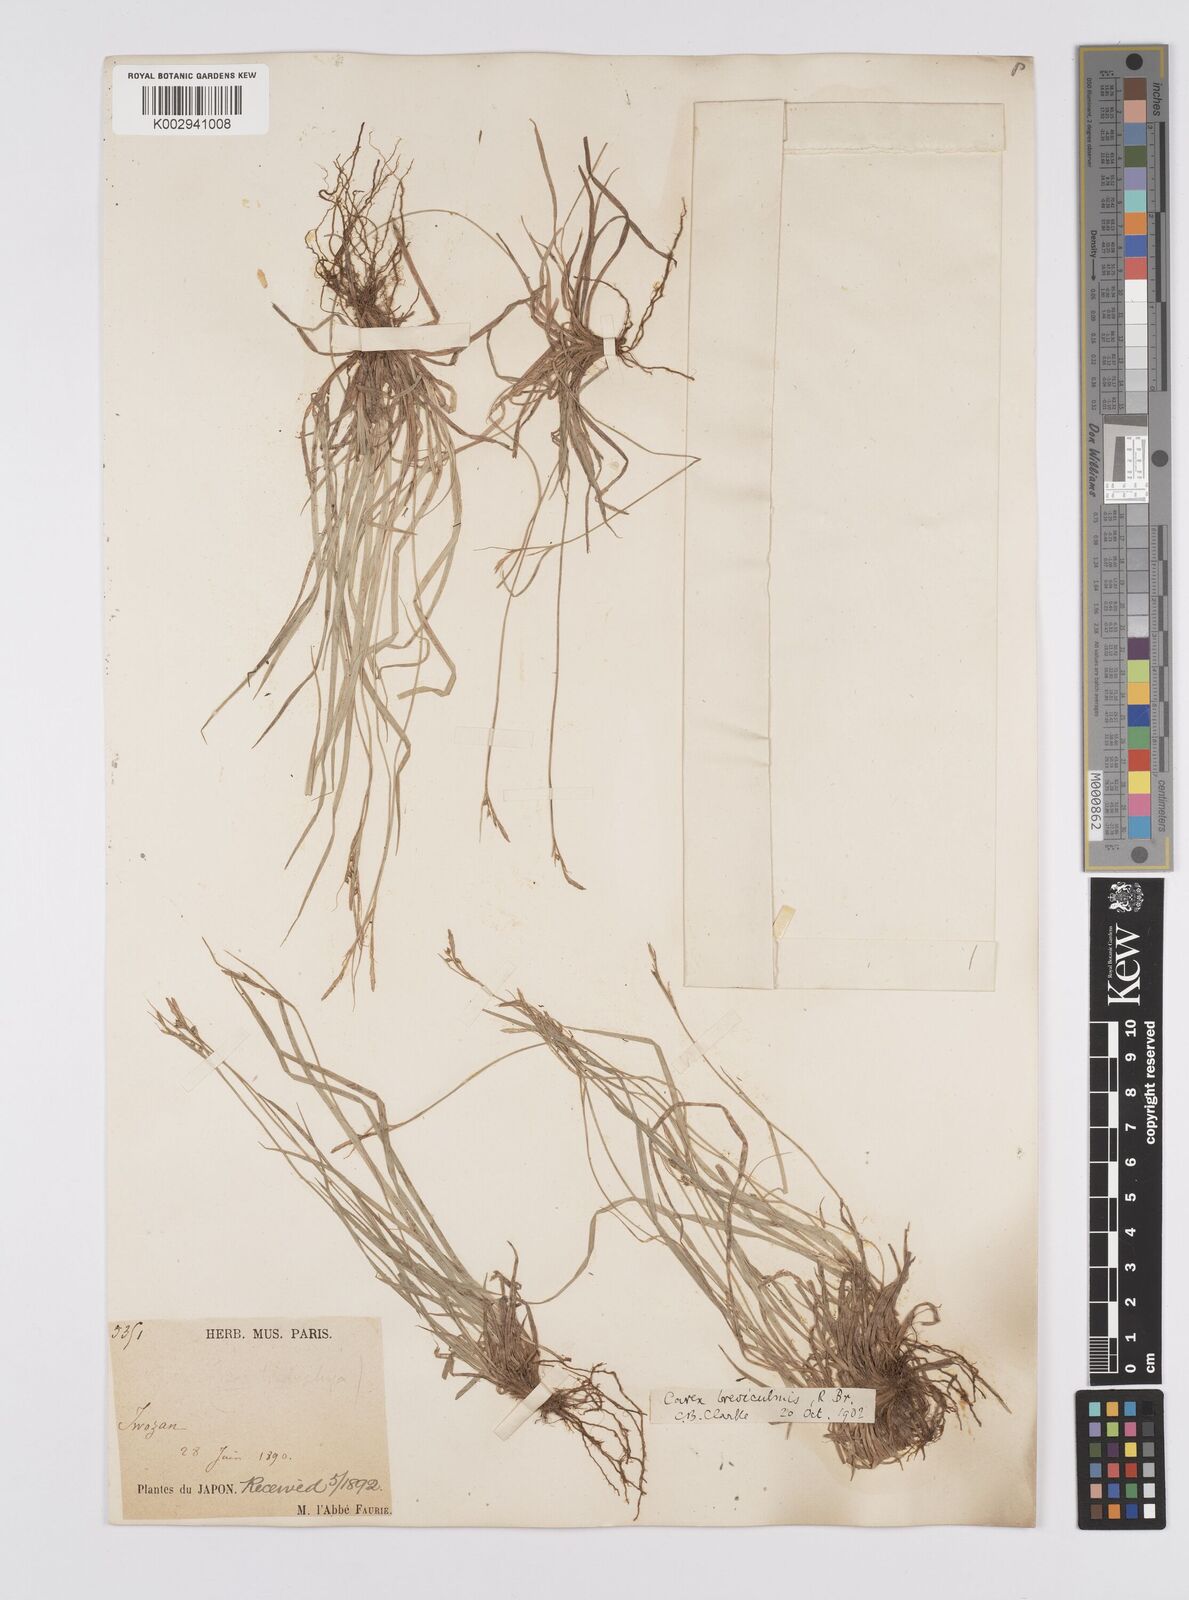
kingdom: Plantae
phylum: Tracheophyta
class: Liliopsida
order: Poales
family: Cyperaceae
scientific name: Cyperaceae
